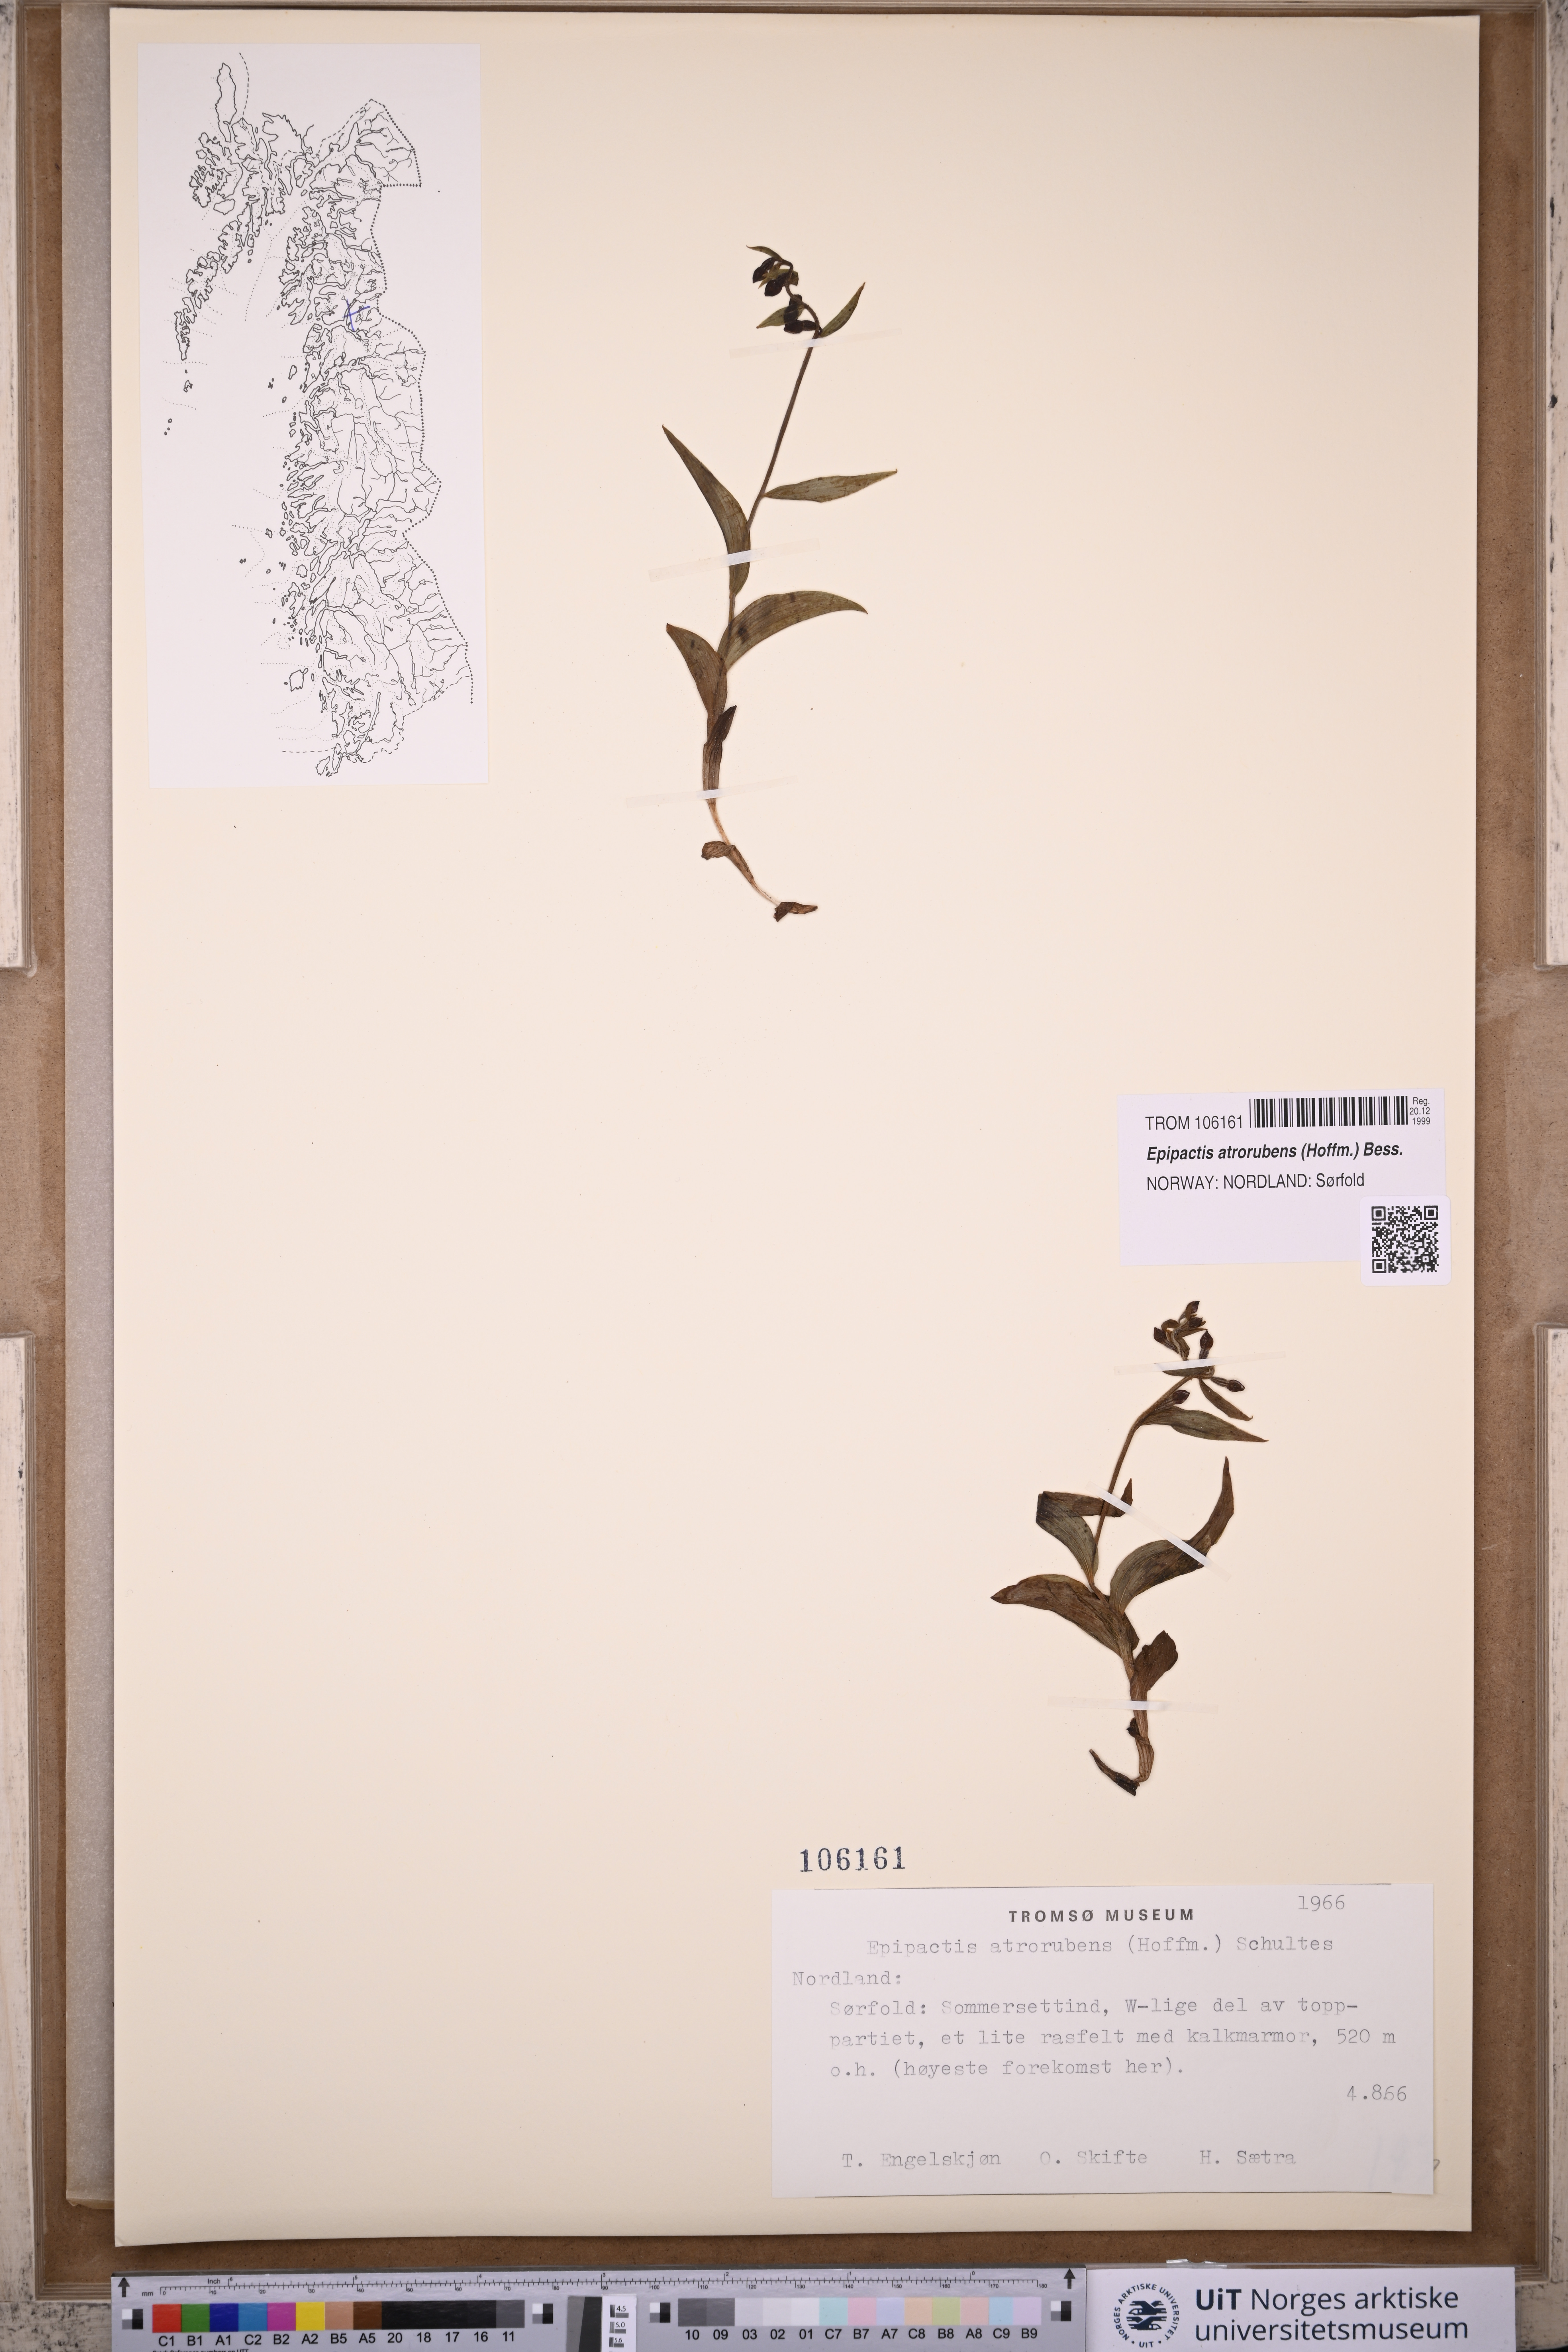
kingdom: Plantae
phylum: Tracheophyta
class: Liliopsida
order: Asparagales
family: Orchidaceae
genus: Epipactis
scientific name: Epipactis atrorubens
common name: Dark-red helleborine
